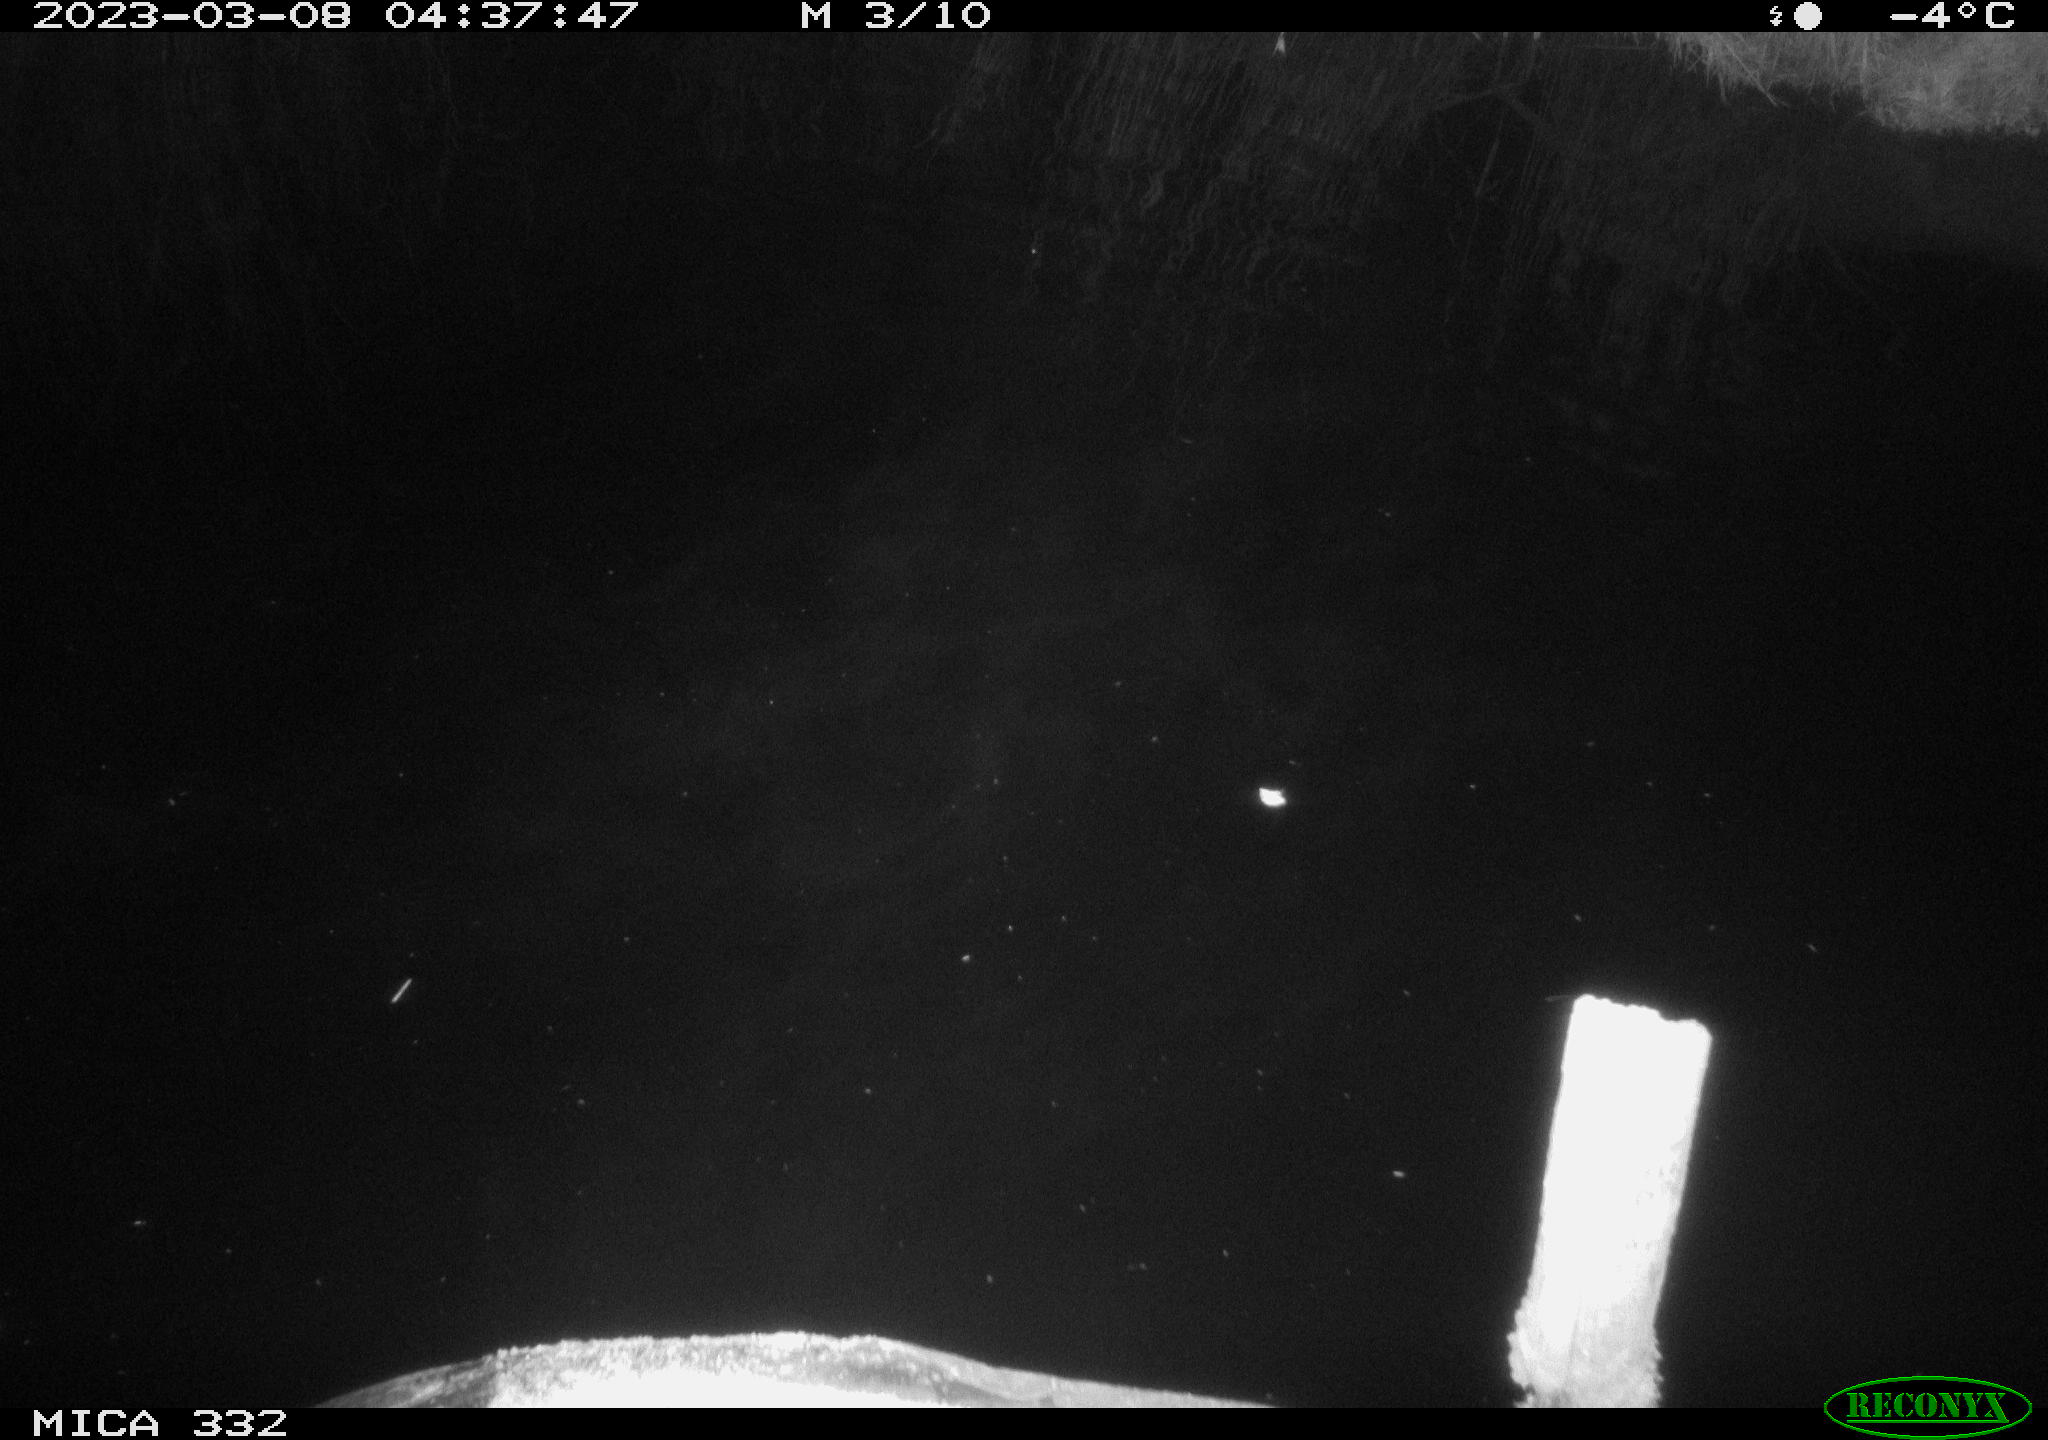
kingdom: Animalia
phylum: Chordata
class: Aves
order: Anseriformes
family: Anatidae
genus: Anas
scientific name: Anas
